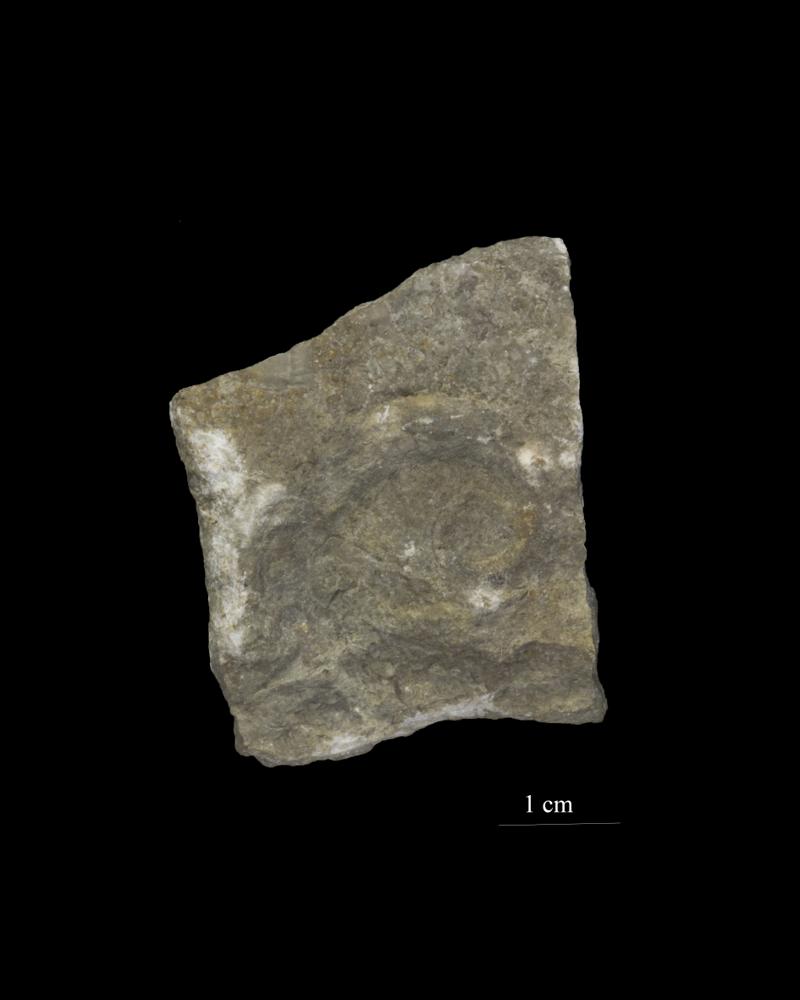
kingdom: Animalia
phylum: Mollusca
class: Gastropoda
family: Lesueurillidae
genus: Eccyliopterus
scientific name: Eccyliopterus regularis
